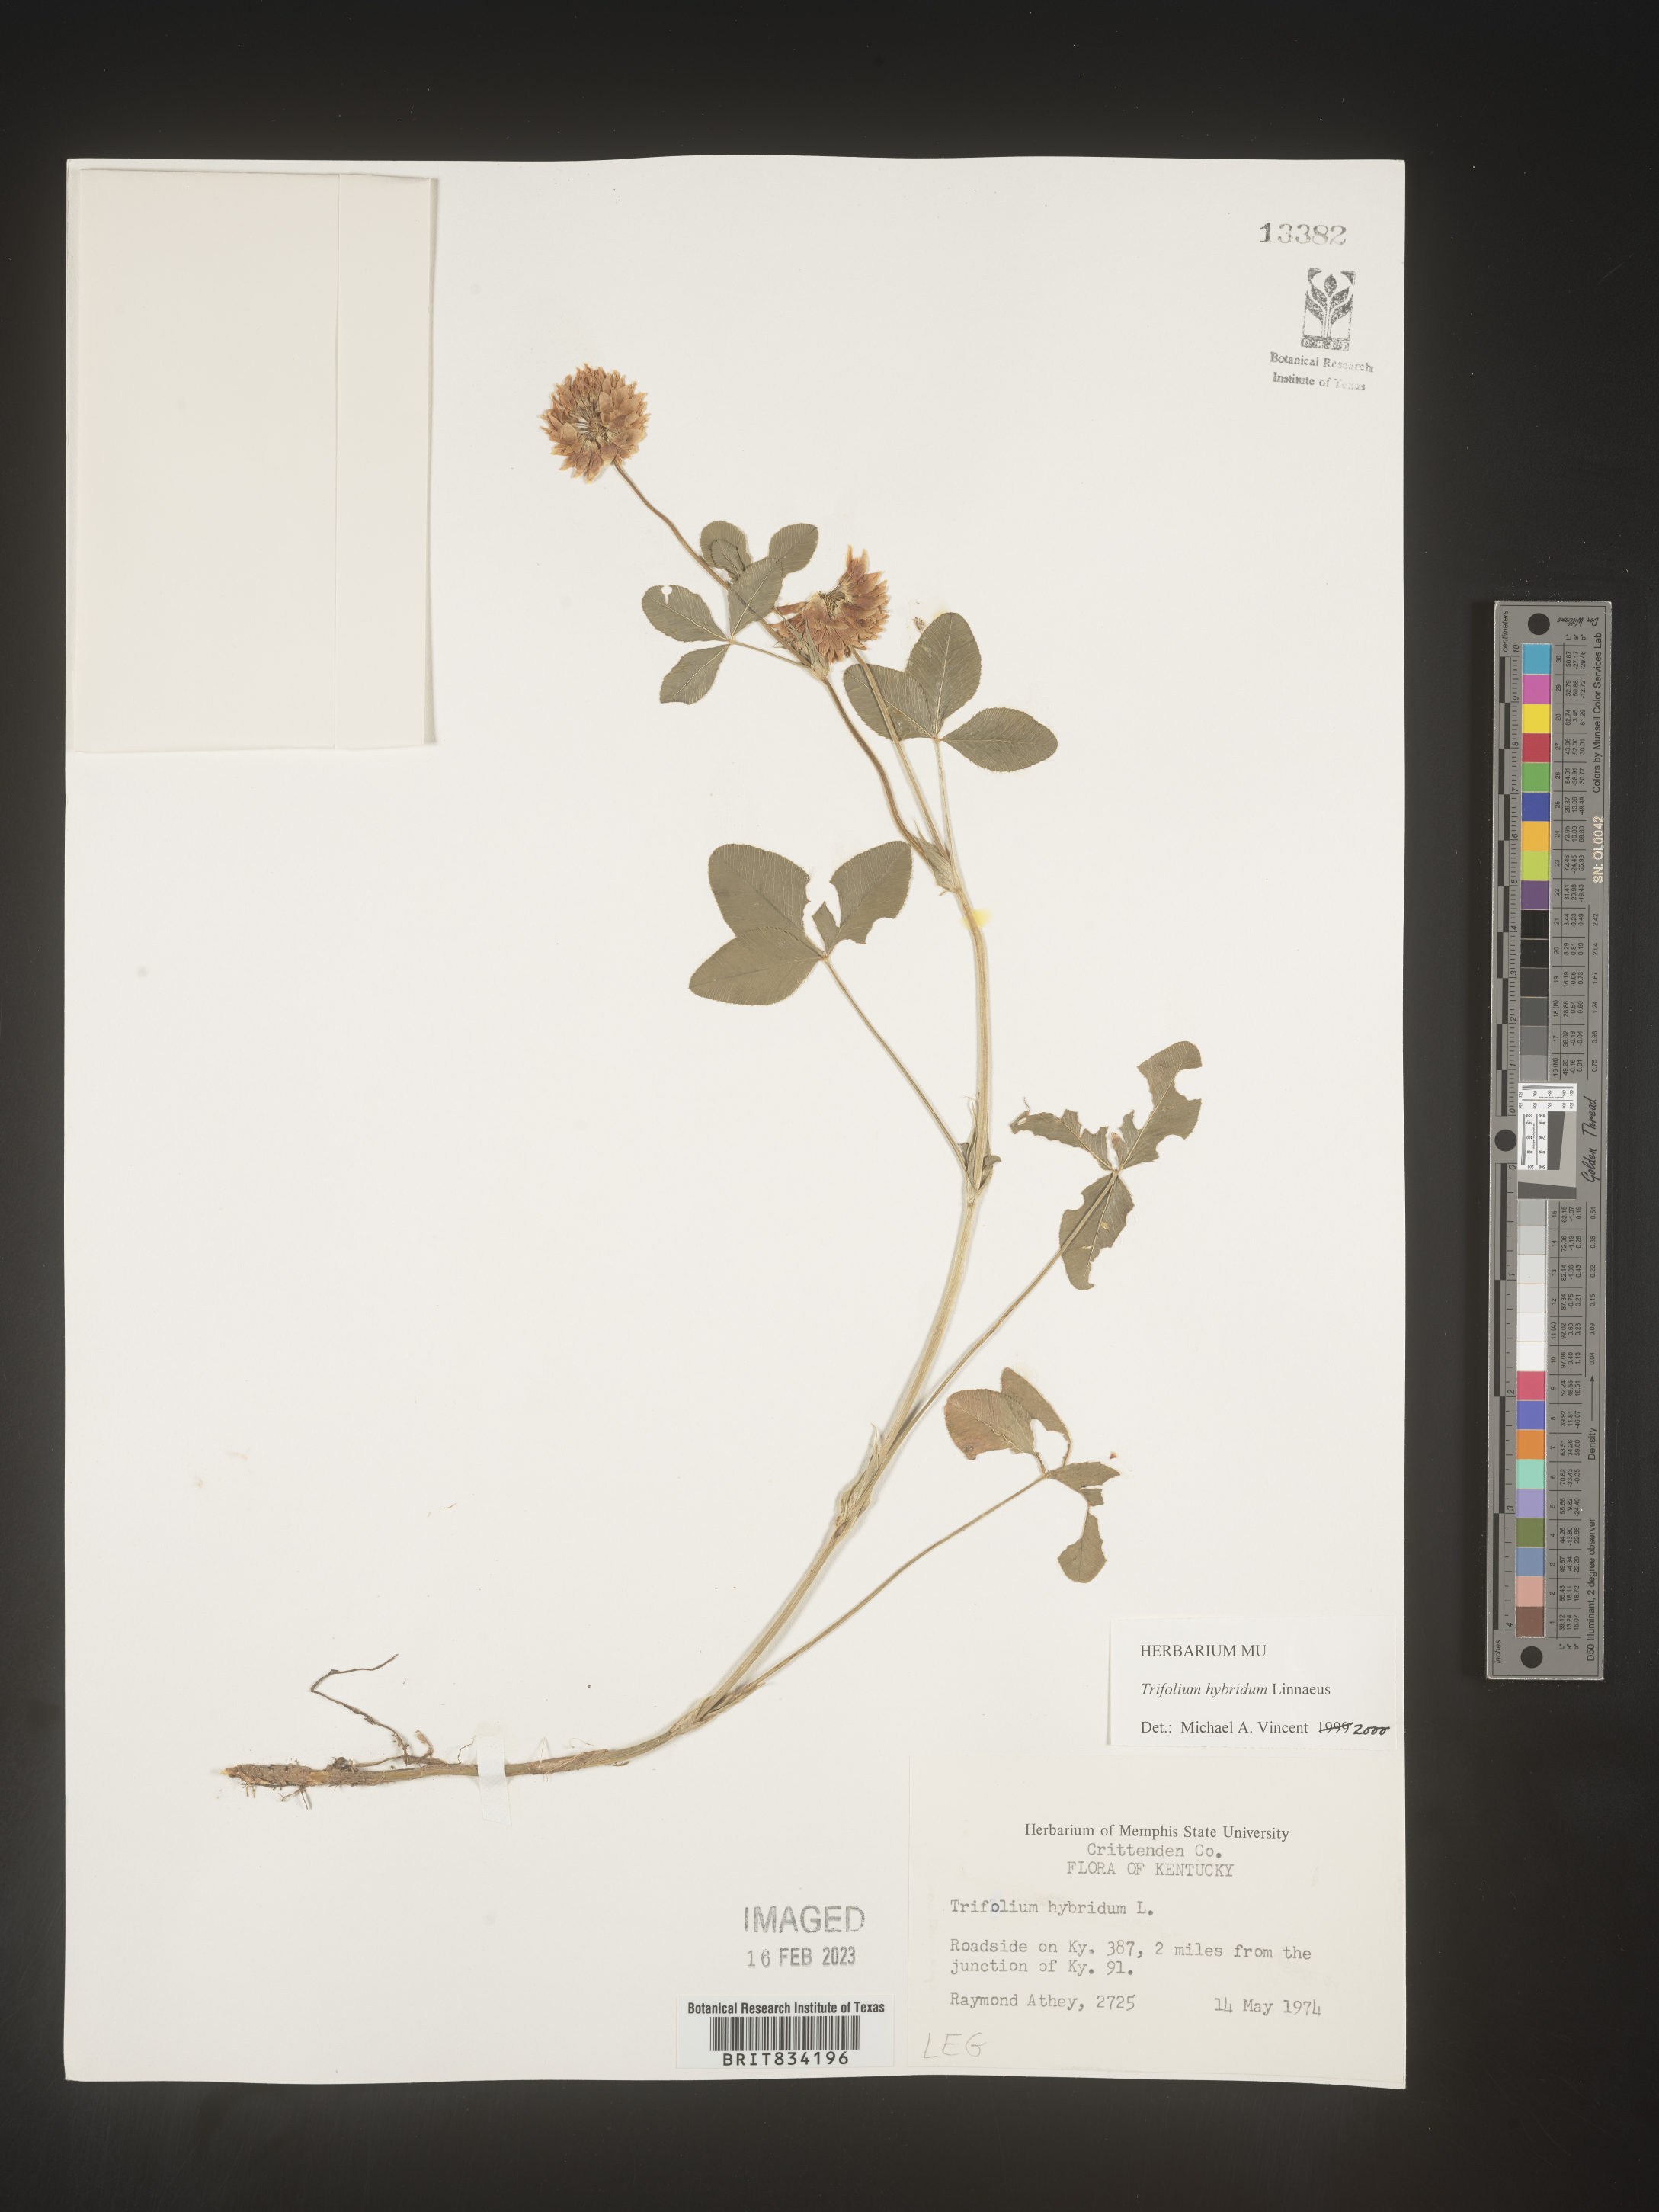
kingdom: Plantae
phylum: Tracheophyta
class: Magnoliopsida
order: Fabales
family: Fabaceae
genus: Trifolium
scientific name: Trifolium hybridum
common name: Alsike clover
